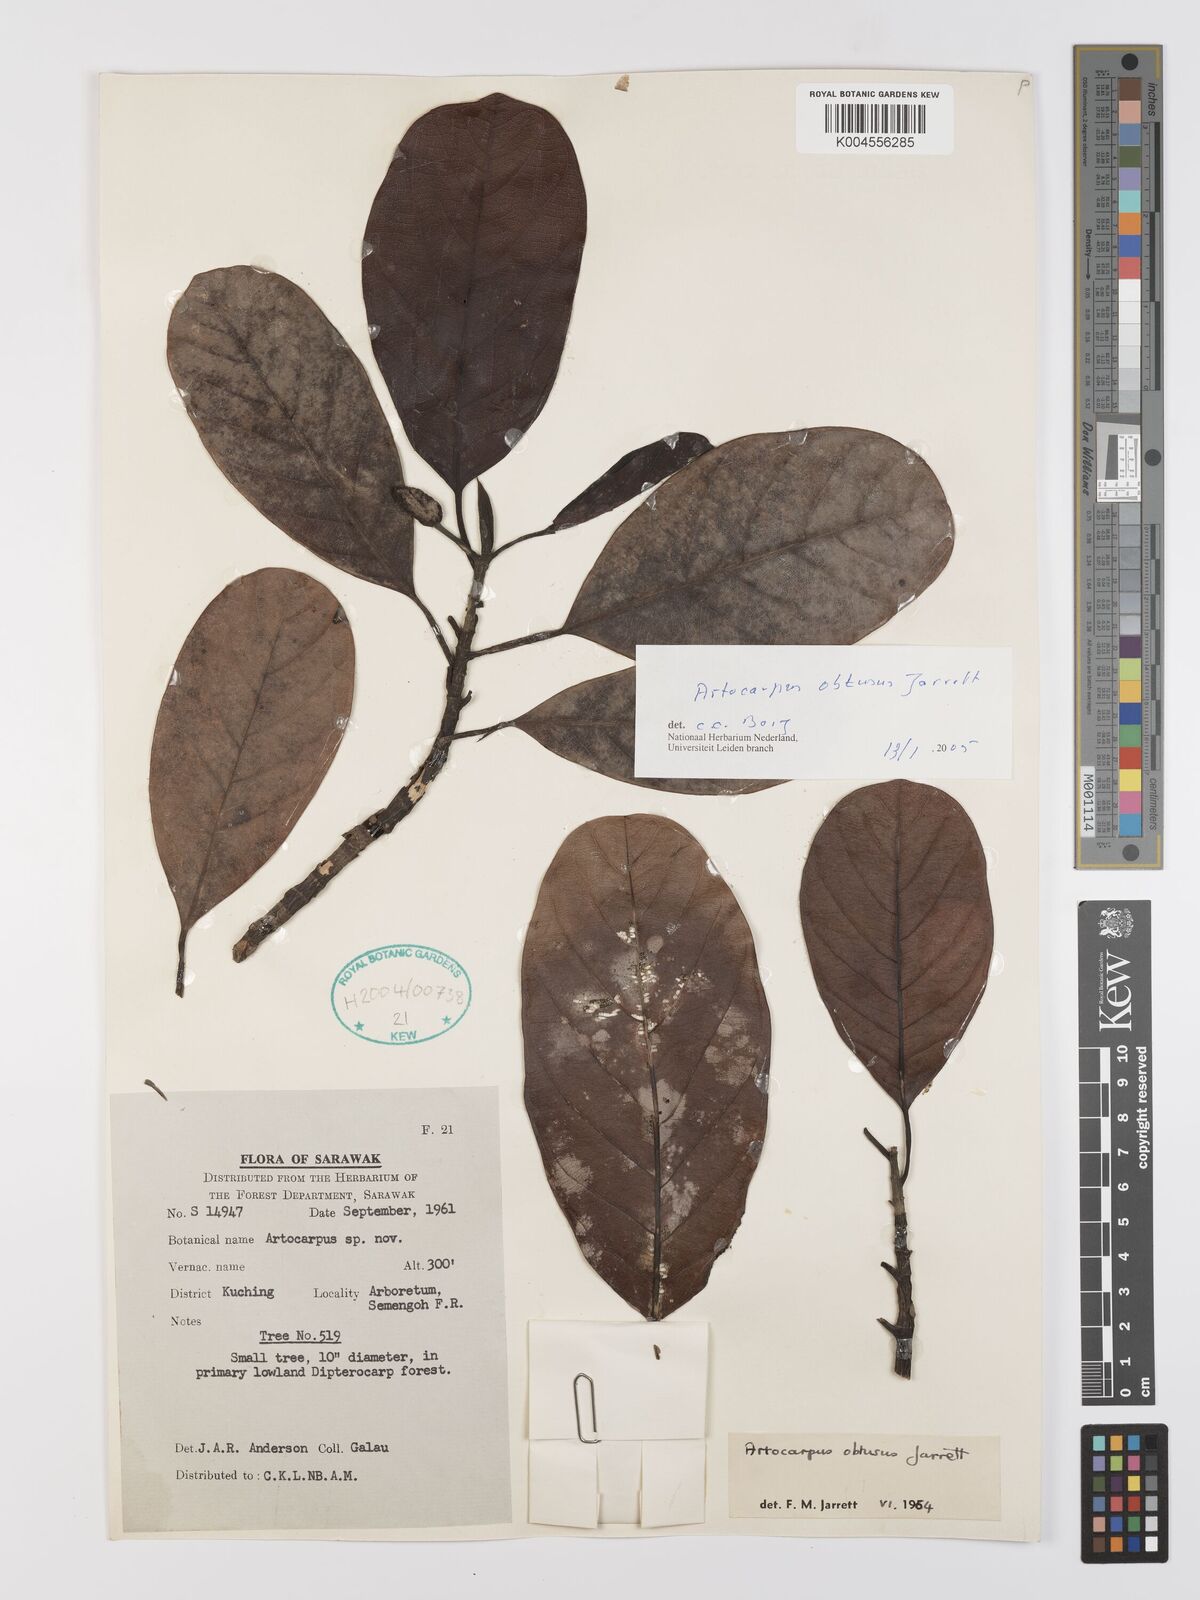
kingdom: Plantae
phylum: Tracheophyta
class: Magnoliopsida
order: Rosales
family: Moraceae
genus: Artocarpus
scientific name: Artocarpus obtusus
